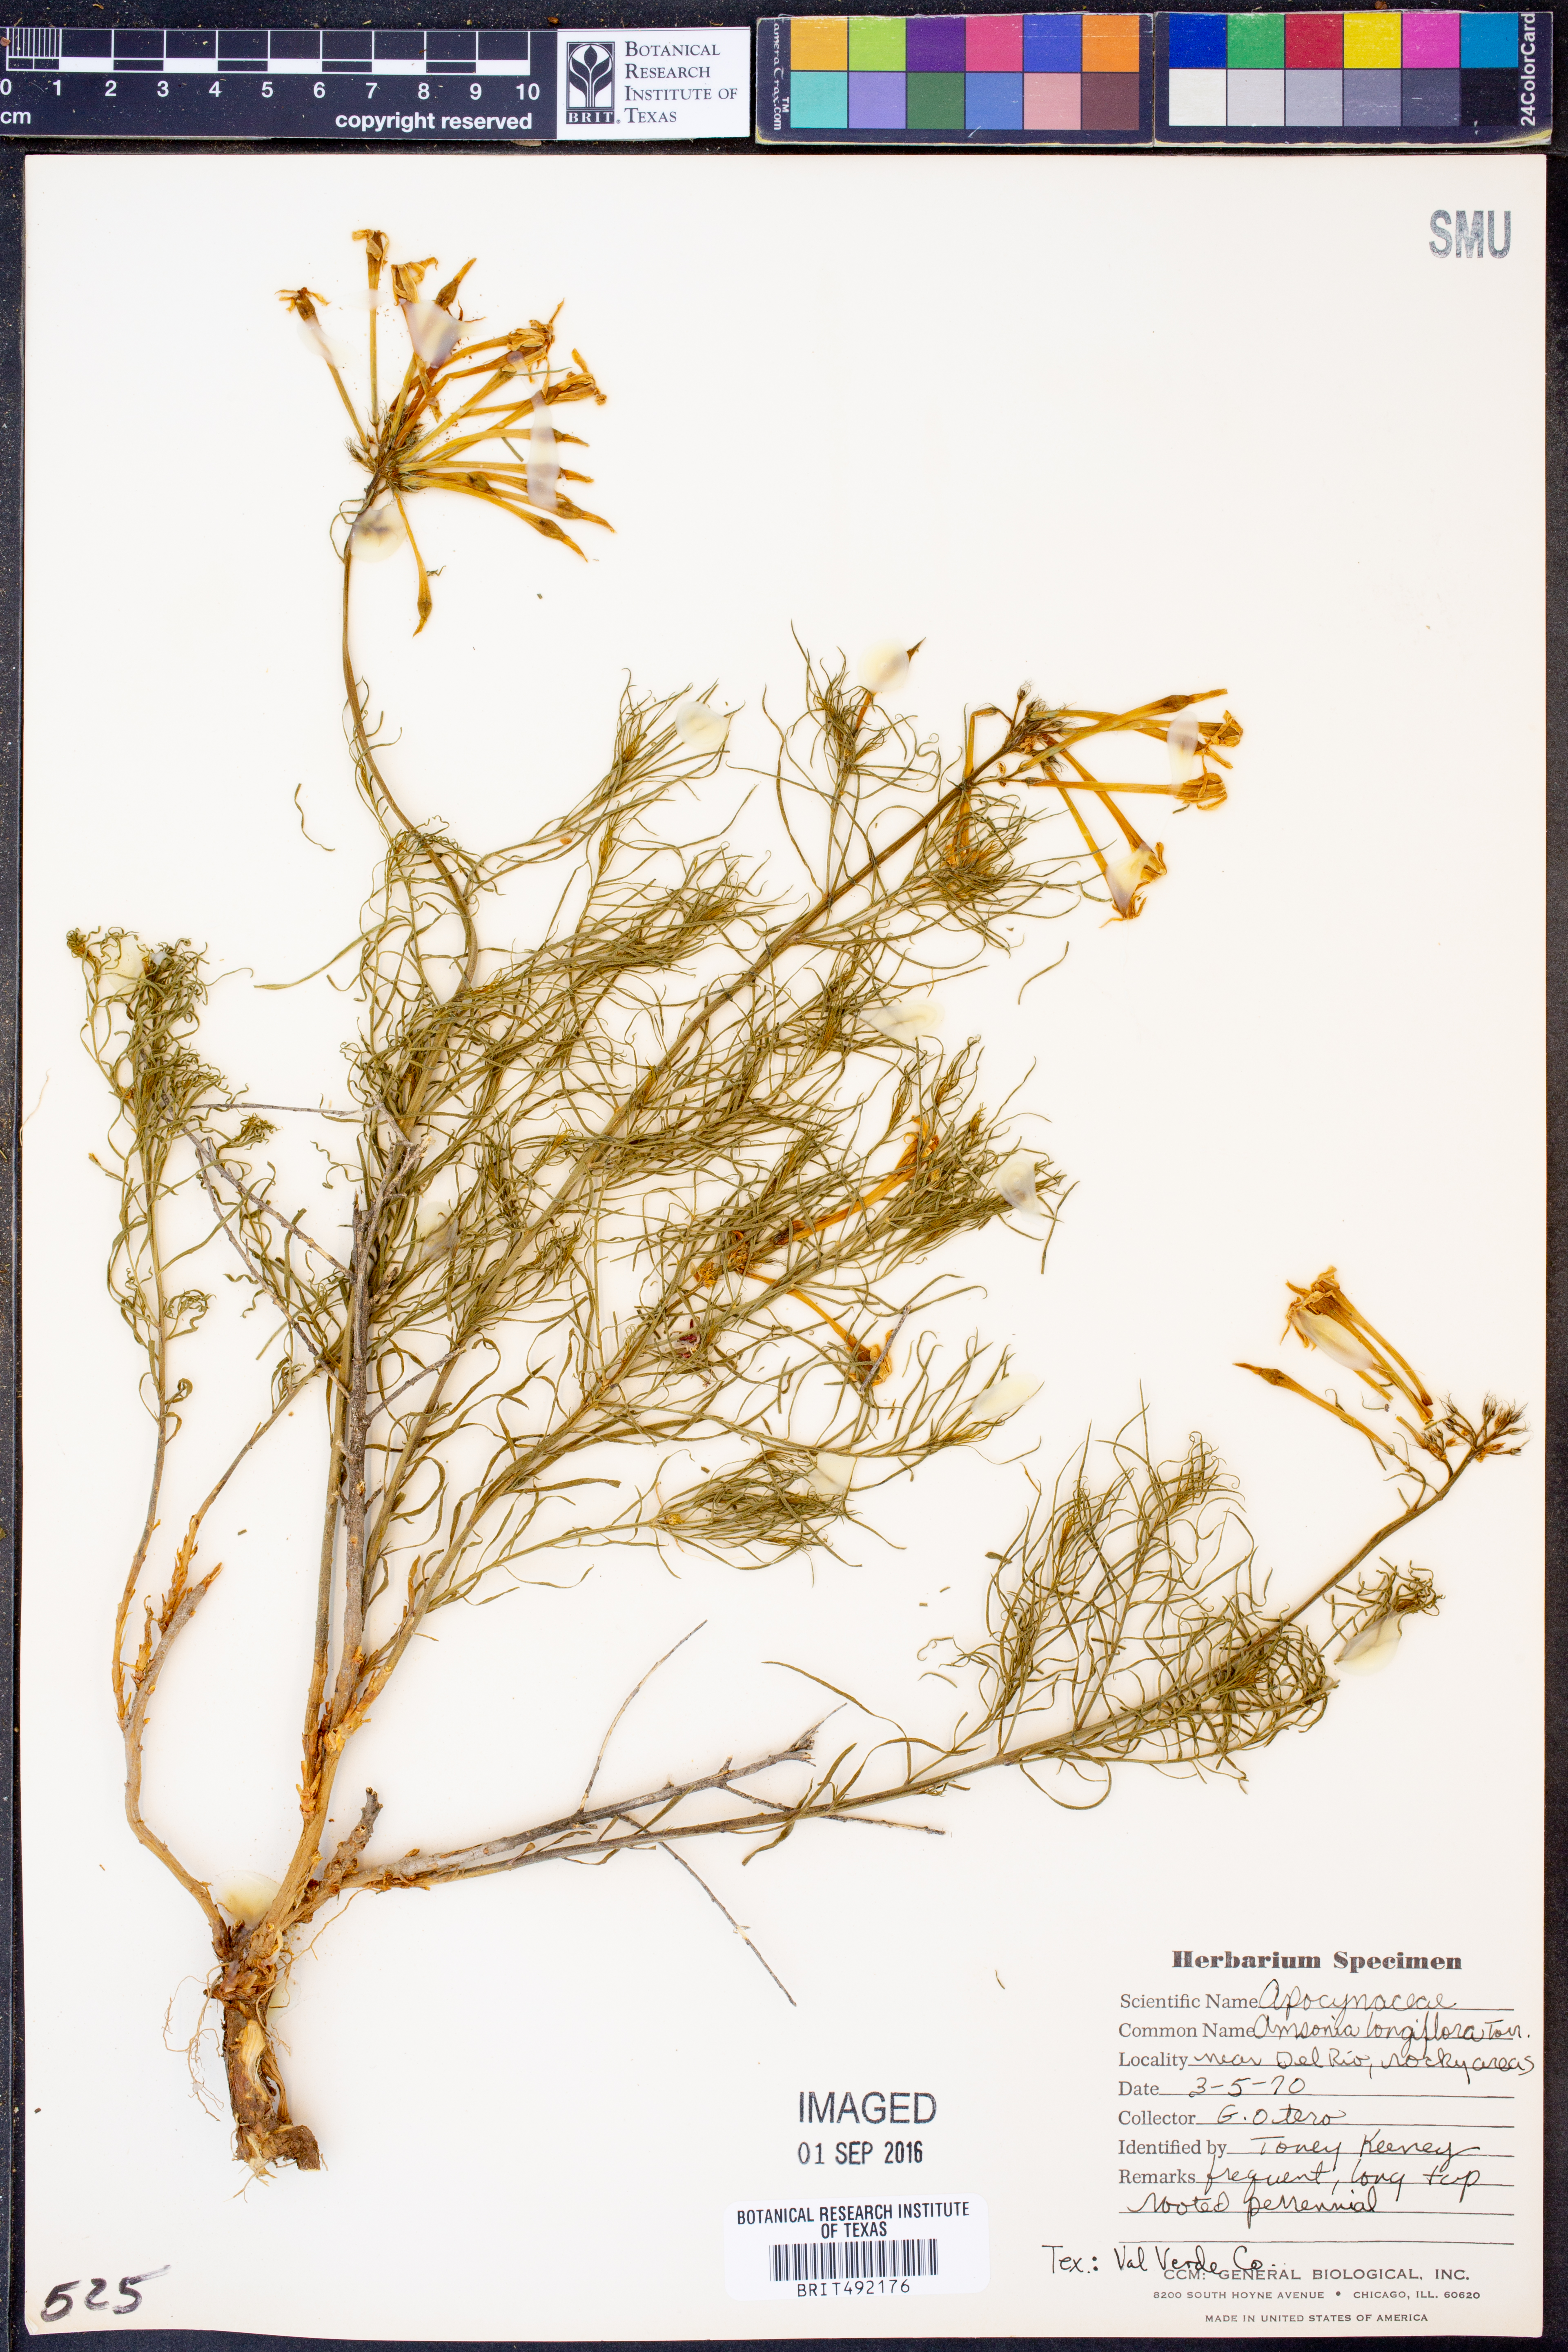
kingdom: Plantae
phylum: Tracheophyta
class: Magnoliopsida
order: Gentianales
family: Apocynaceae
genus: Amsonia
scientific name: Amsonia longiflora
